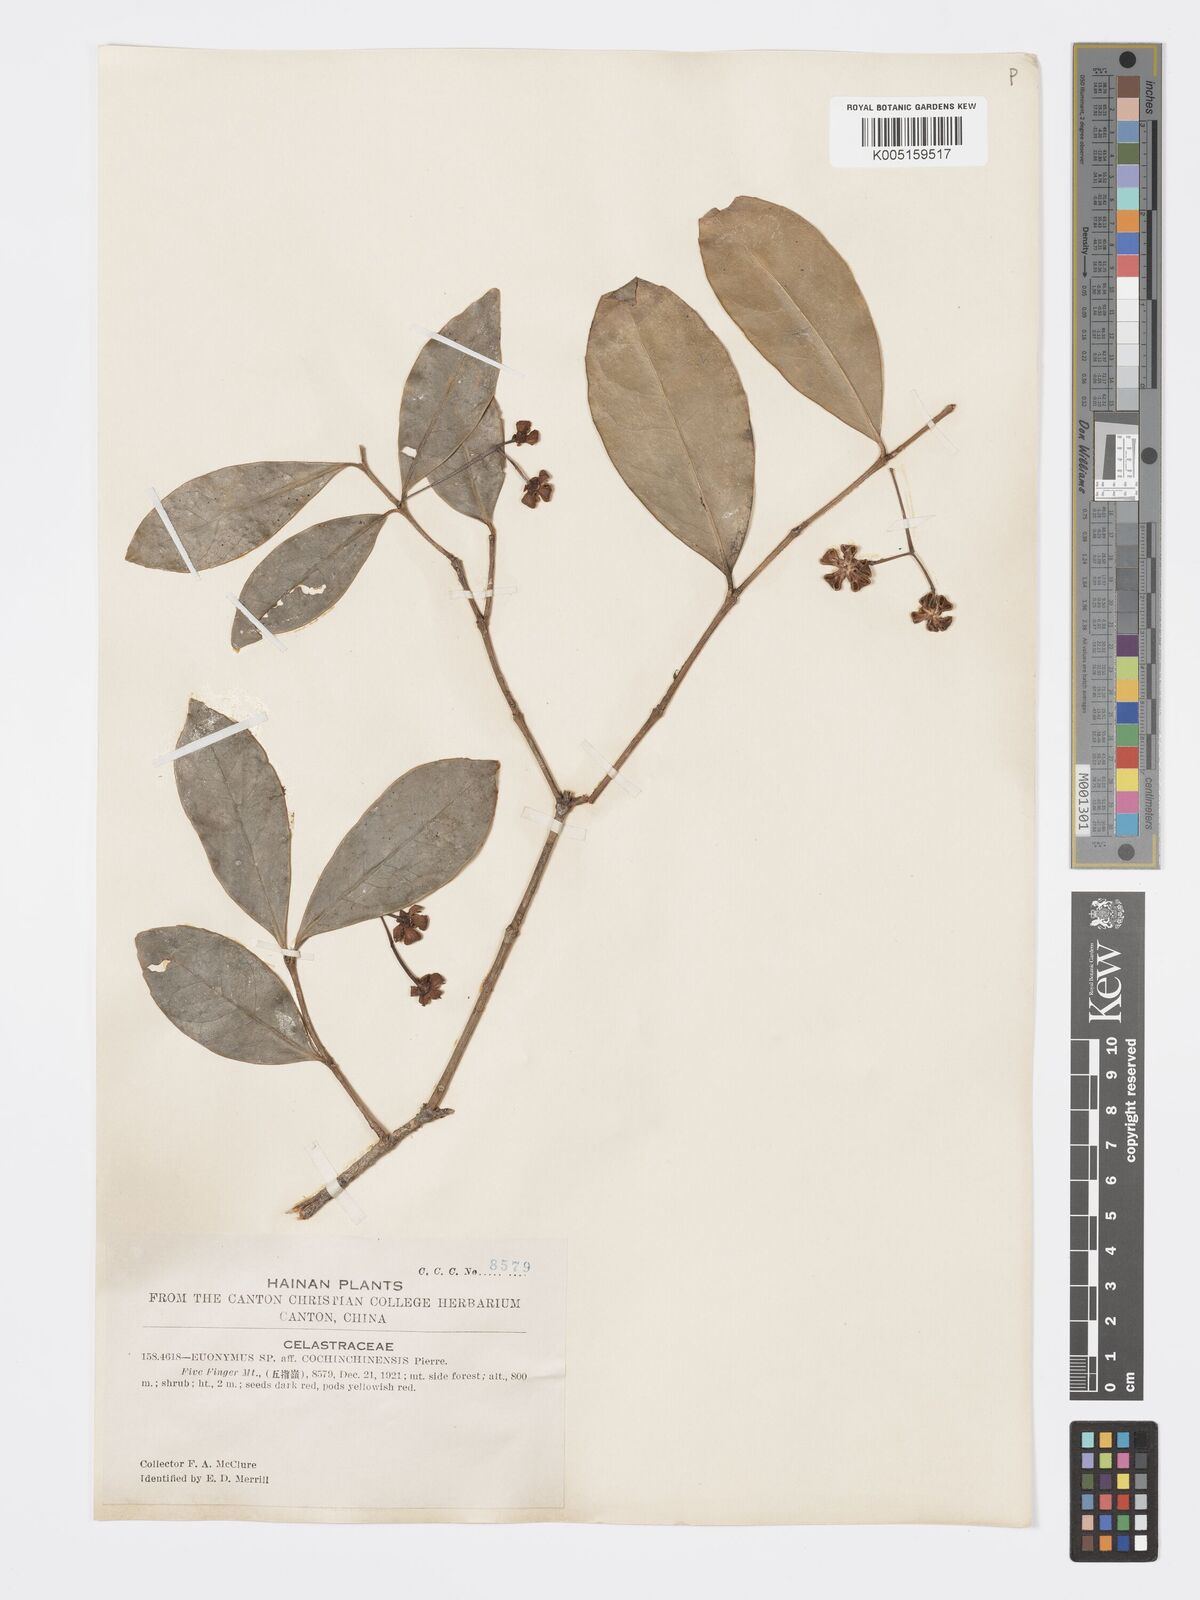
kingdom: Plantae
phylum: Tracheophyta
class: Magnoliopsida
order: Celastrales
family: Celastraceae
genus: Euonymus
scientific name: Euonymus cochinchinensis
